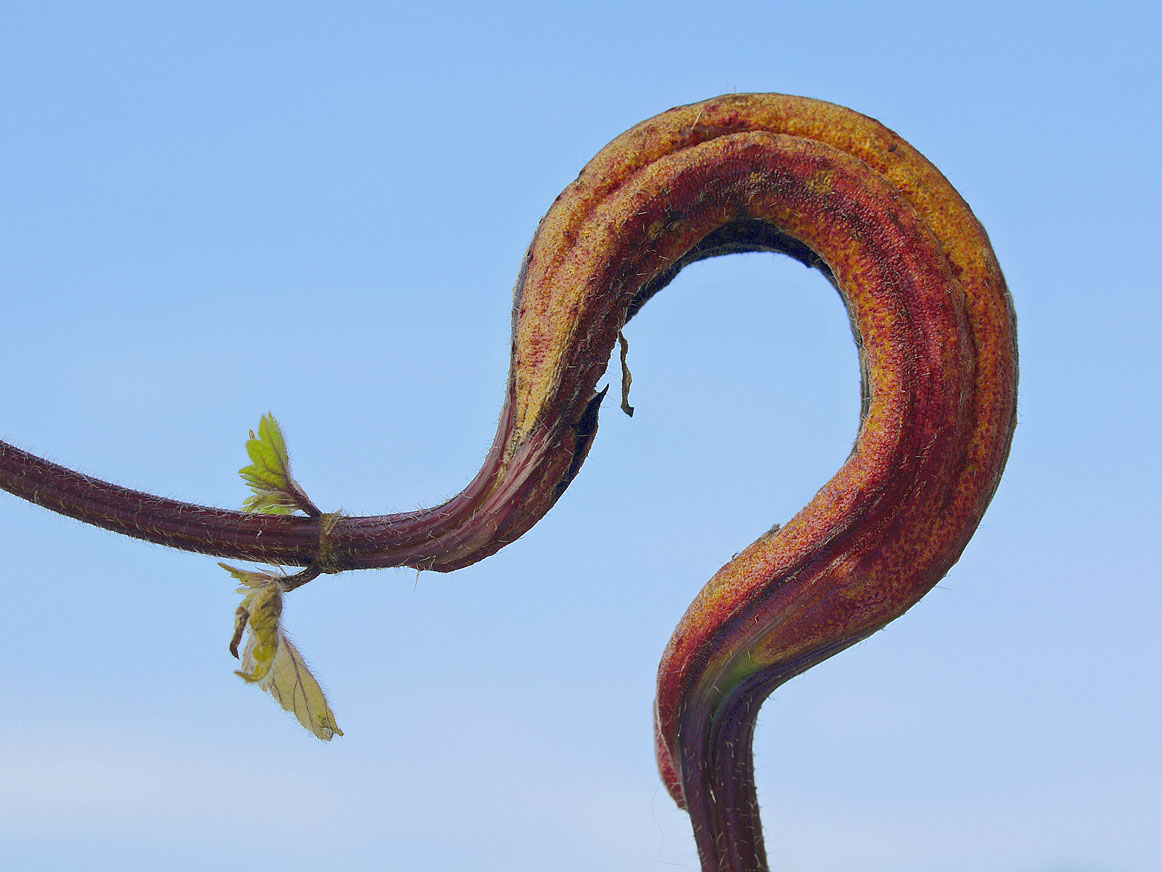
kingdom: Fungi
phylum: Basidiomycota
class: Pucciniomycetes
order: Pucciniales
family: Pucciniaceae
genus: Puccinia
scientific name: Puccinia urticata
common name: nældegalle-tvecellerust
